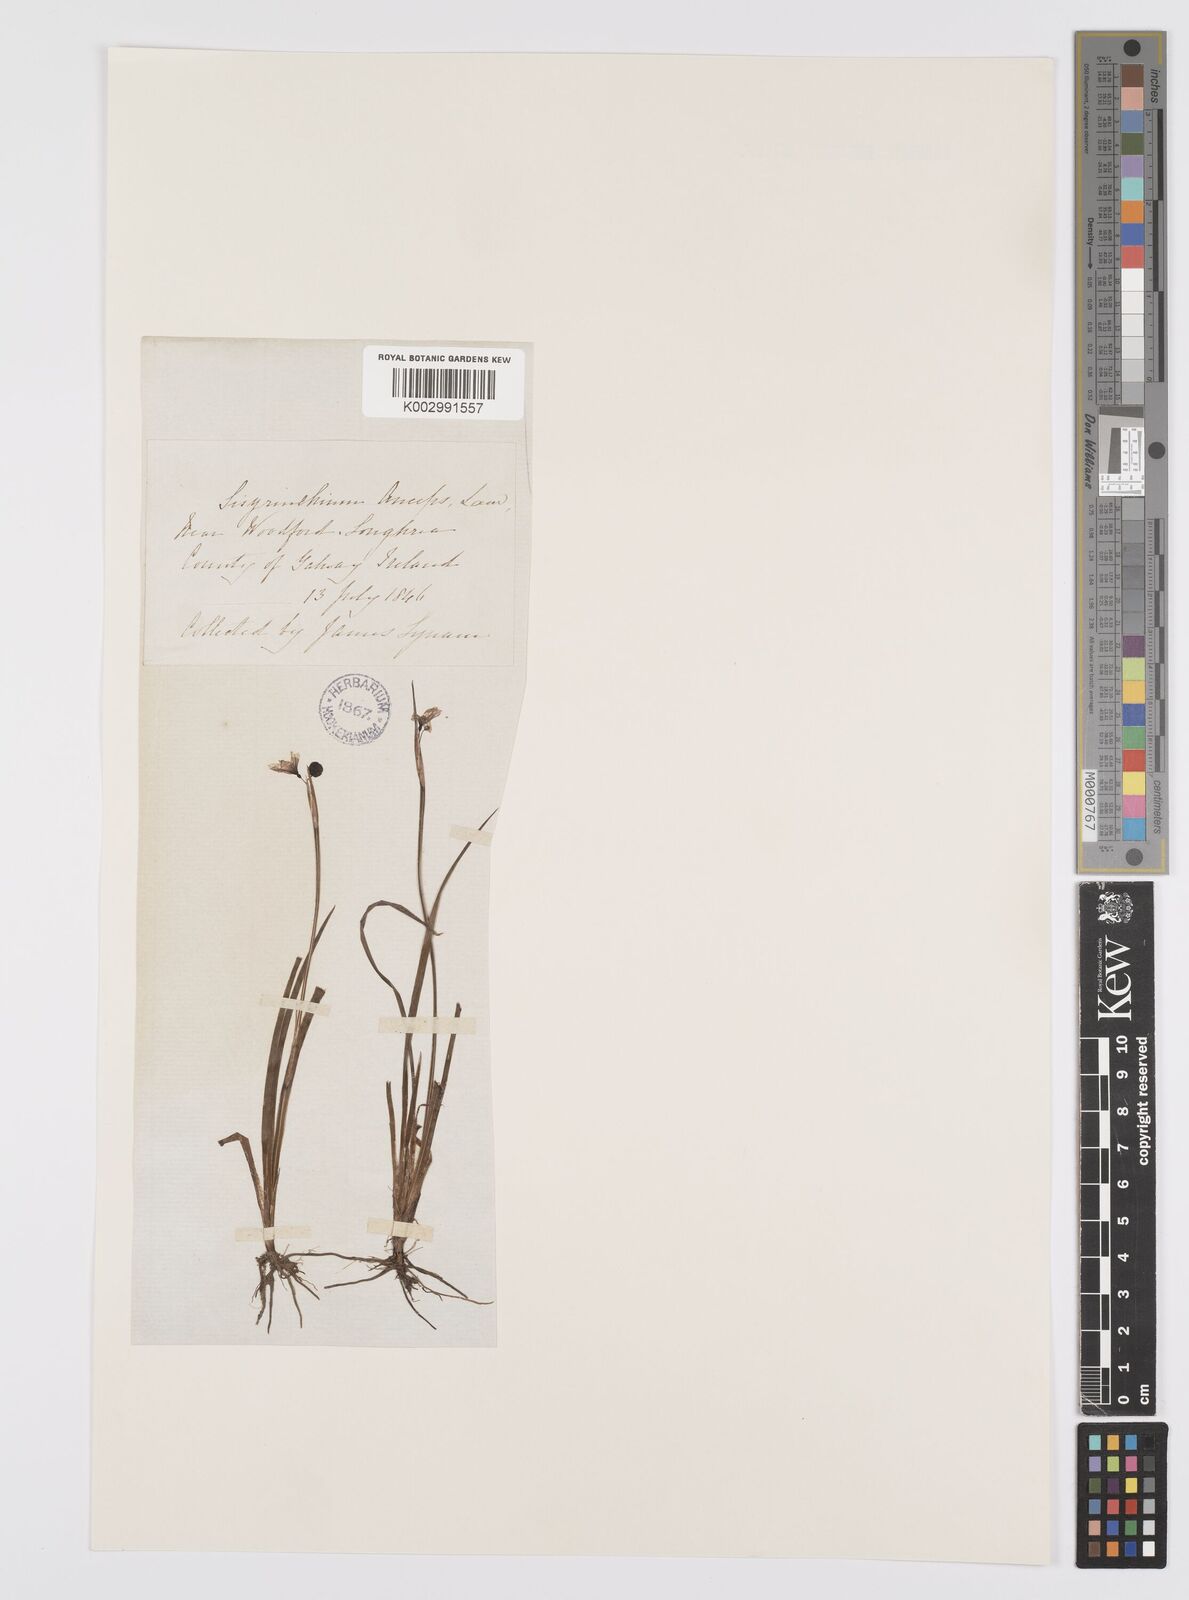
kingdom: Plantae
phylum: Tracheophyta
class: Liliopsida
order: Asparagales
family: Iridaceae
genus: Sisyrinchium
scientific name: Sisyrinchium angustifolium
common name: Narrow-leaf blue-eyed-grass
